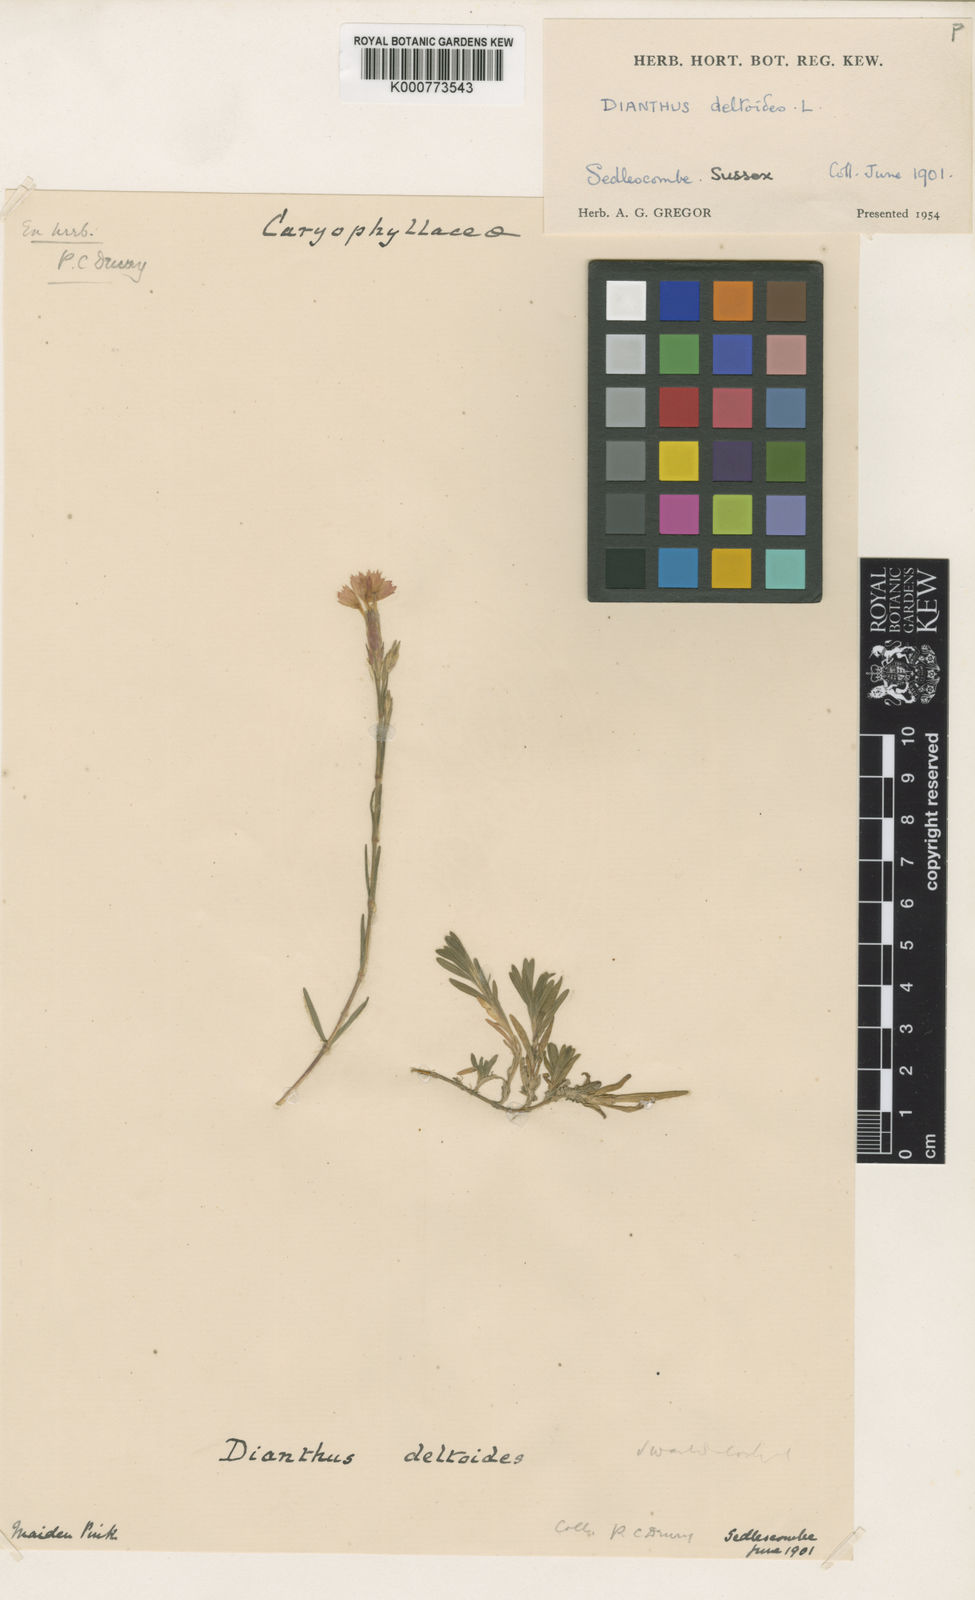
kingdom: Plantae
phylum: Tracheophyta
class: Magnoliopsida
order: Caryophyllales
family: Caryophyllaceae
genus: Dianthus
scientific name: Dianthus deltoides
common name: Maiden pink
